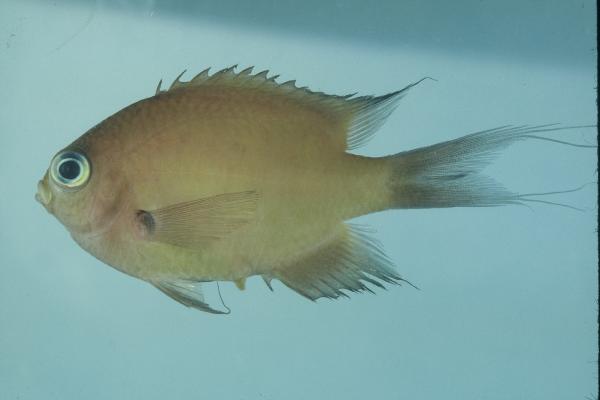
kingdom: Animalia
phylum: Chordata
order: Perciformes
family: Pomacentridae
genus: Chromis
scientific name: Chromis atripes
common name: Dark-fin chromis
